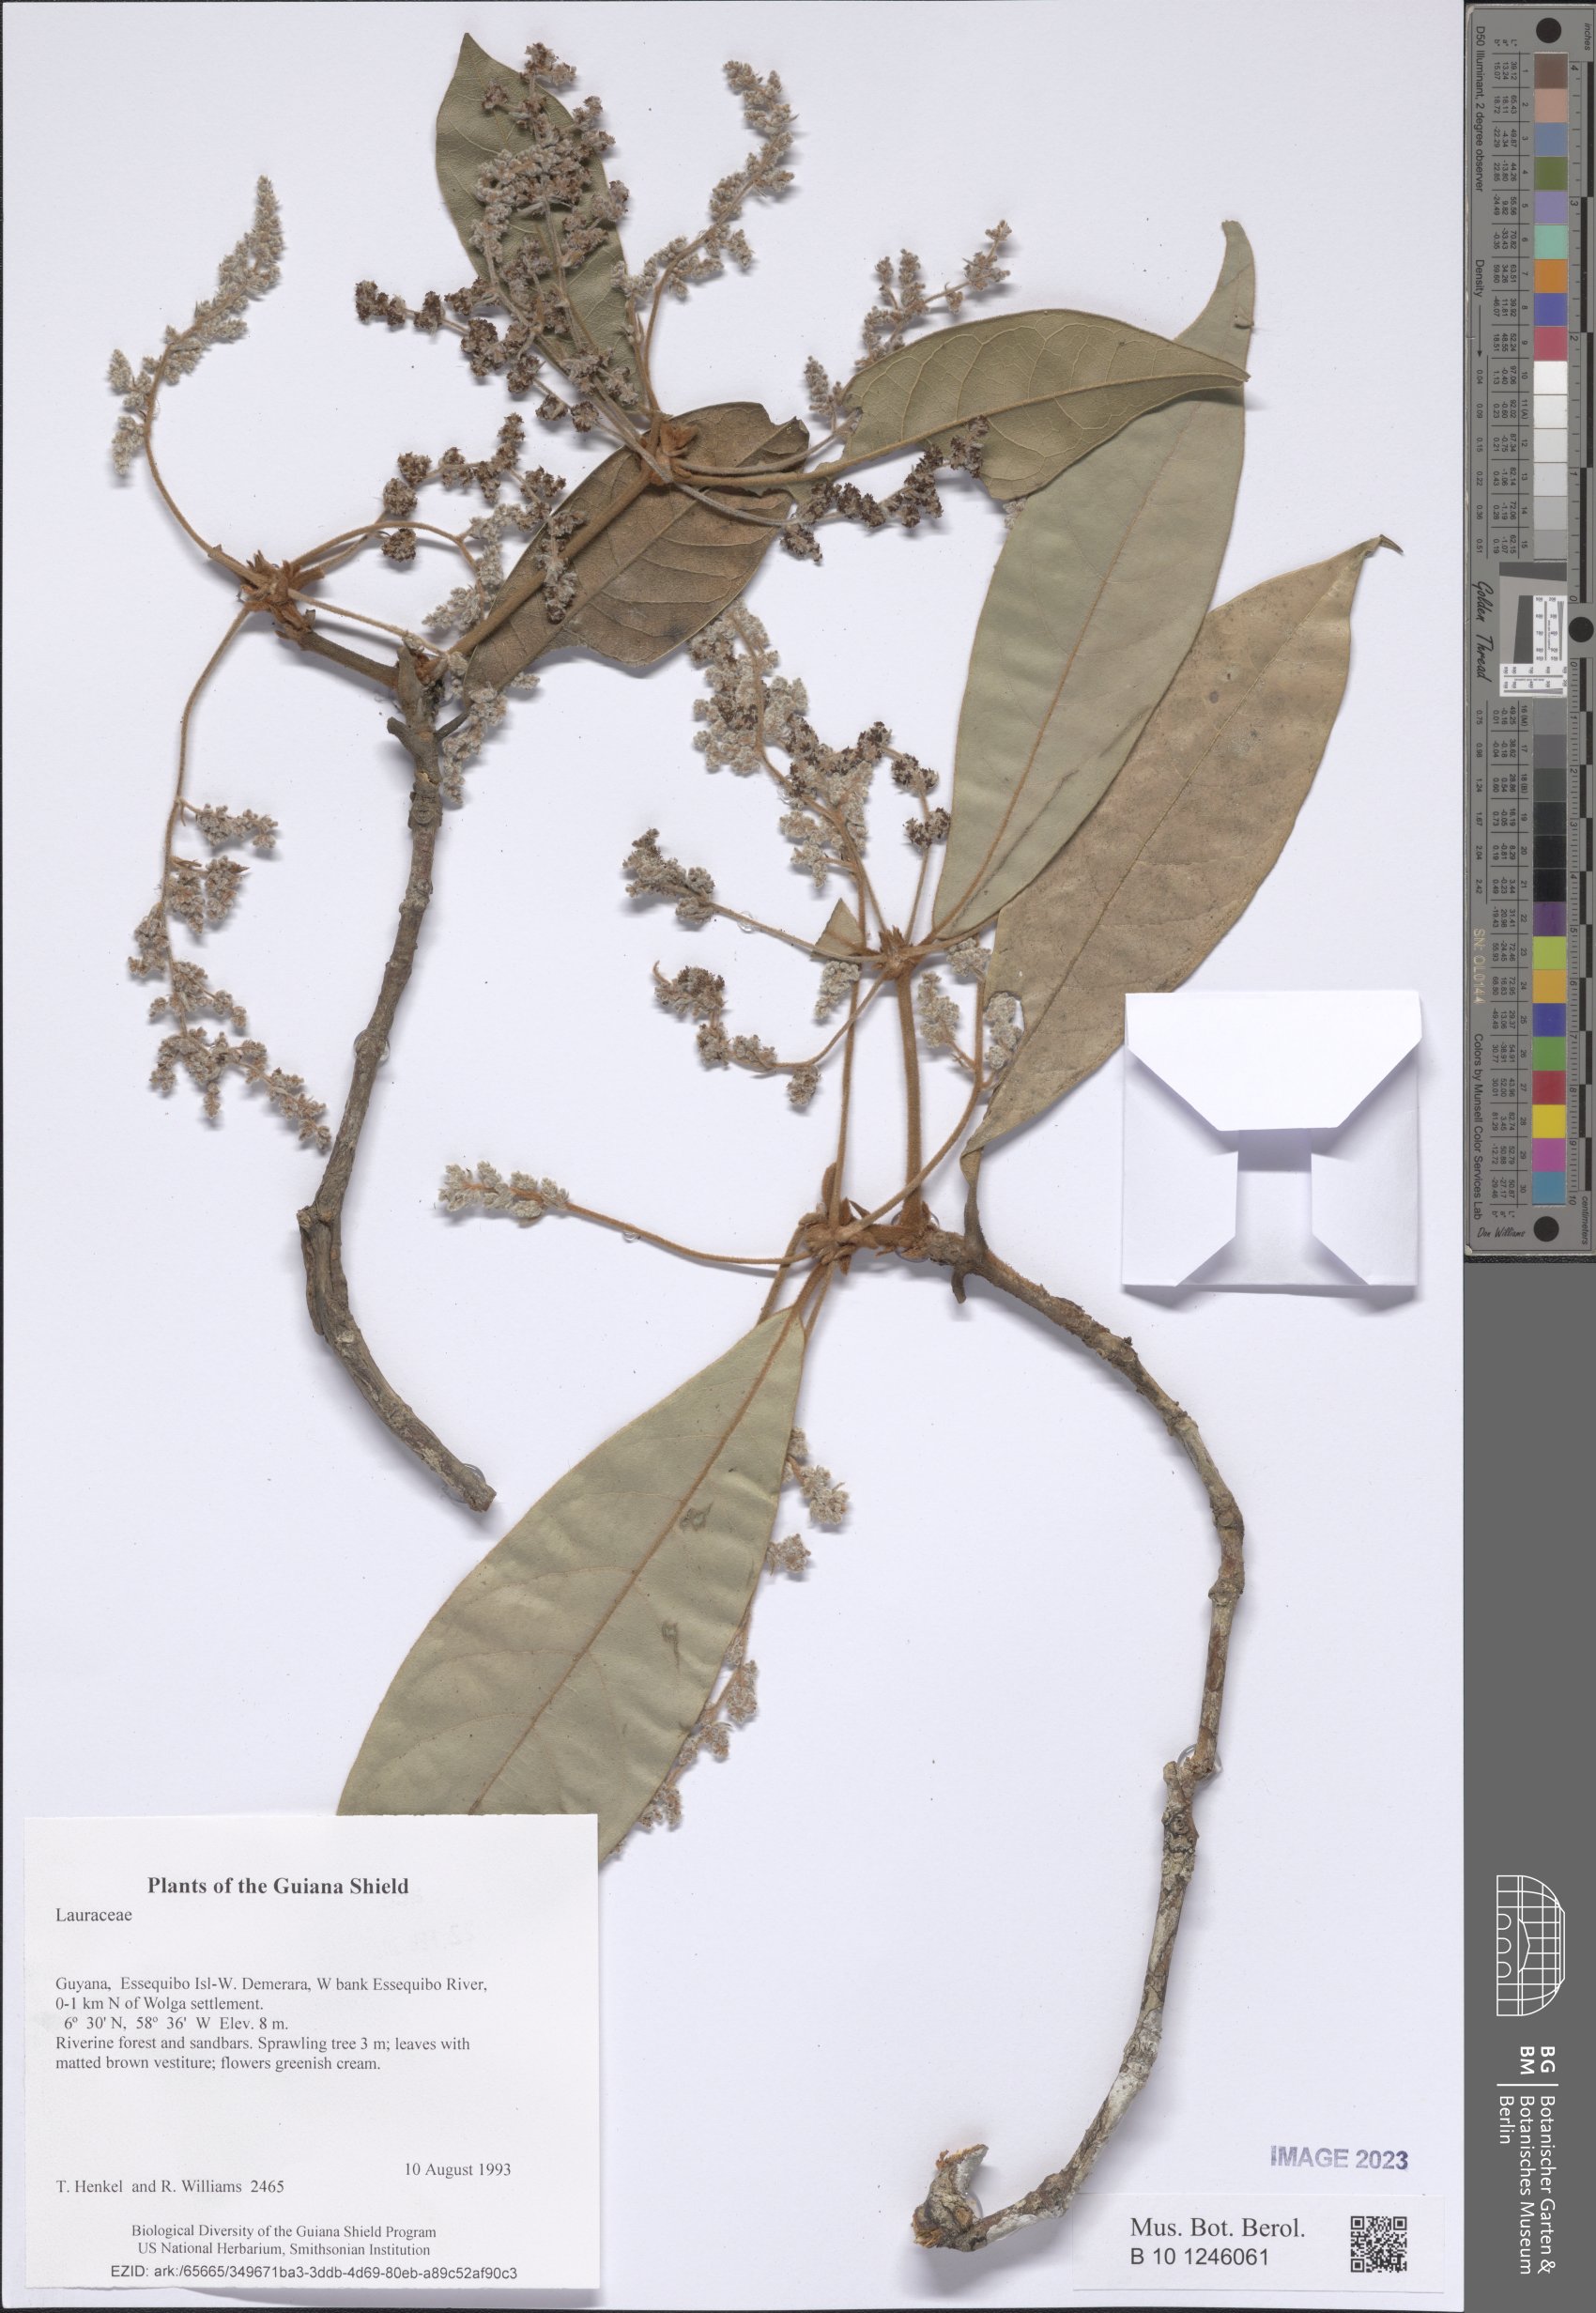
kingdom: Plantae
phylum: Tracheophyta
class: Magnoliopsida
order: Laurales
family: Lauraceae
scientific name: Lauraceae
